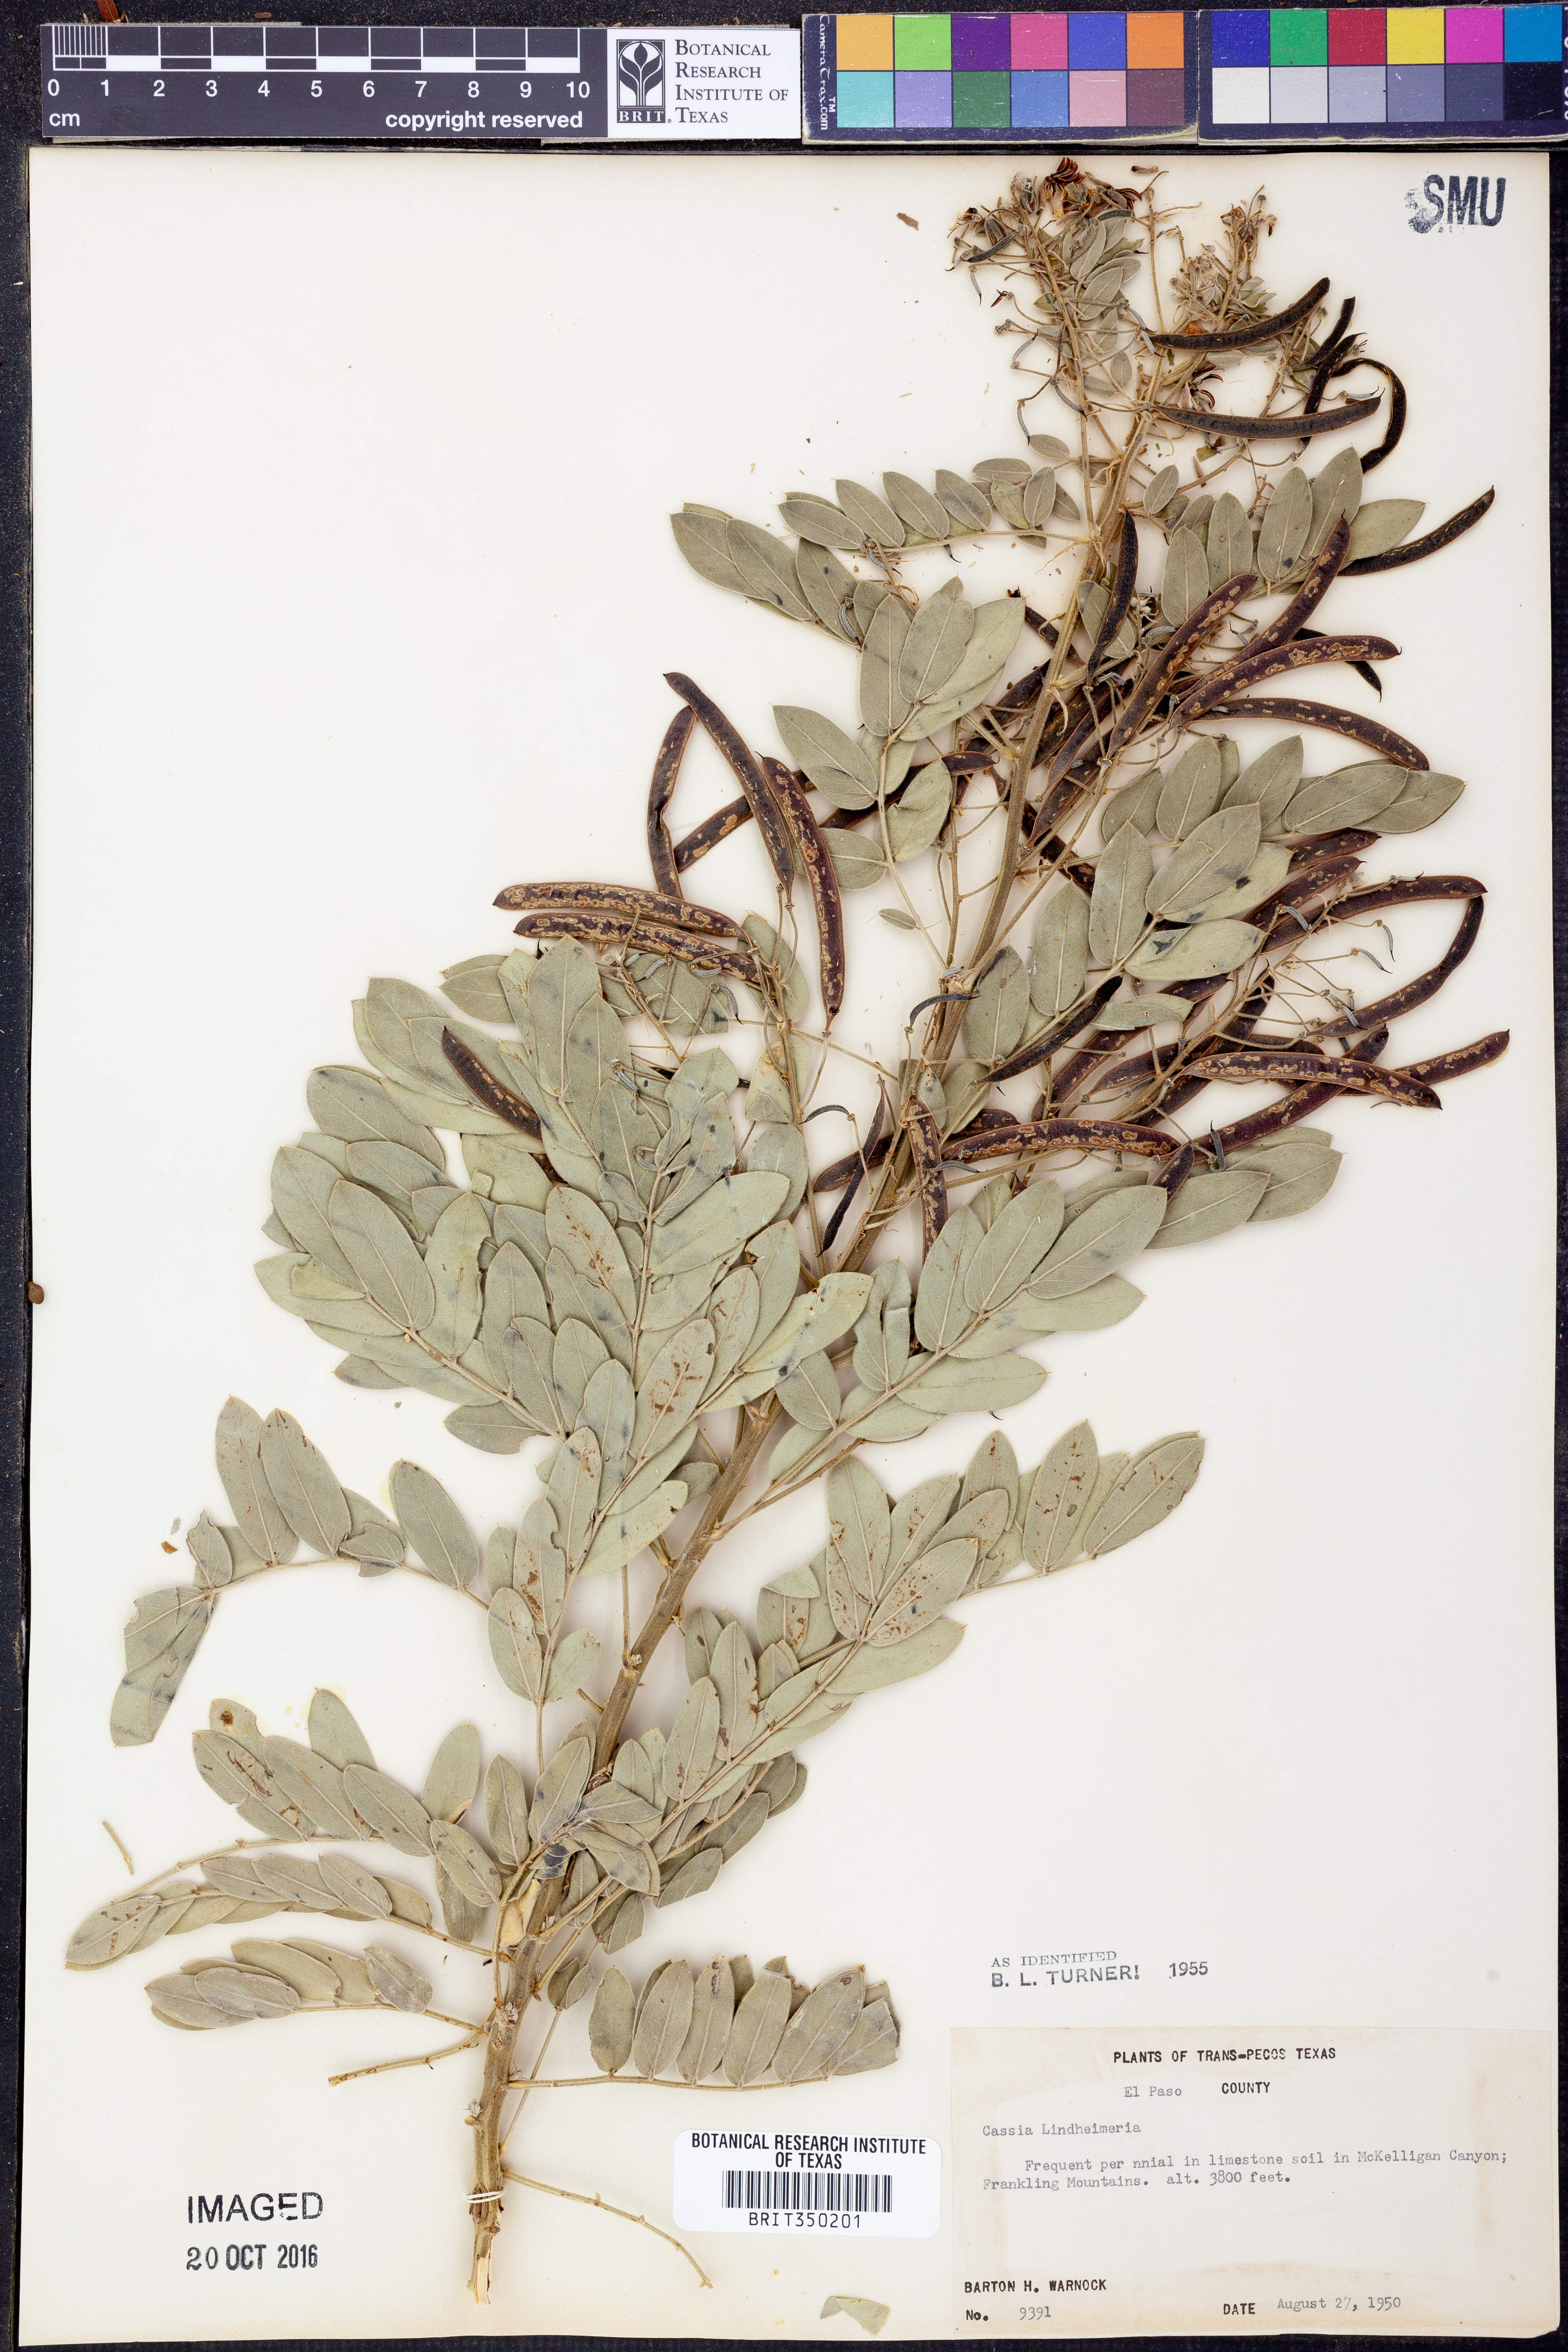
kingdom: Plantae
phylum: Tracheophyta
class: Magnoliopsida
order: Fabales
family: Fabaceae
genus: Senna
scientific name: Senna lindheimeriana
